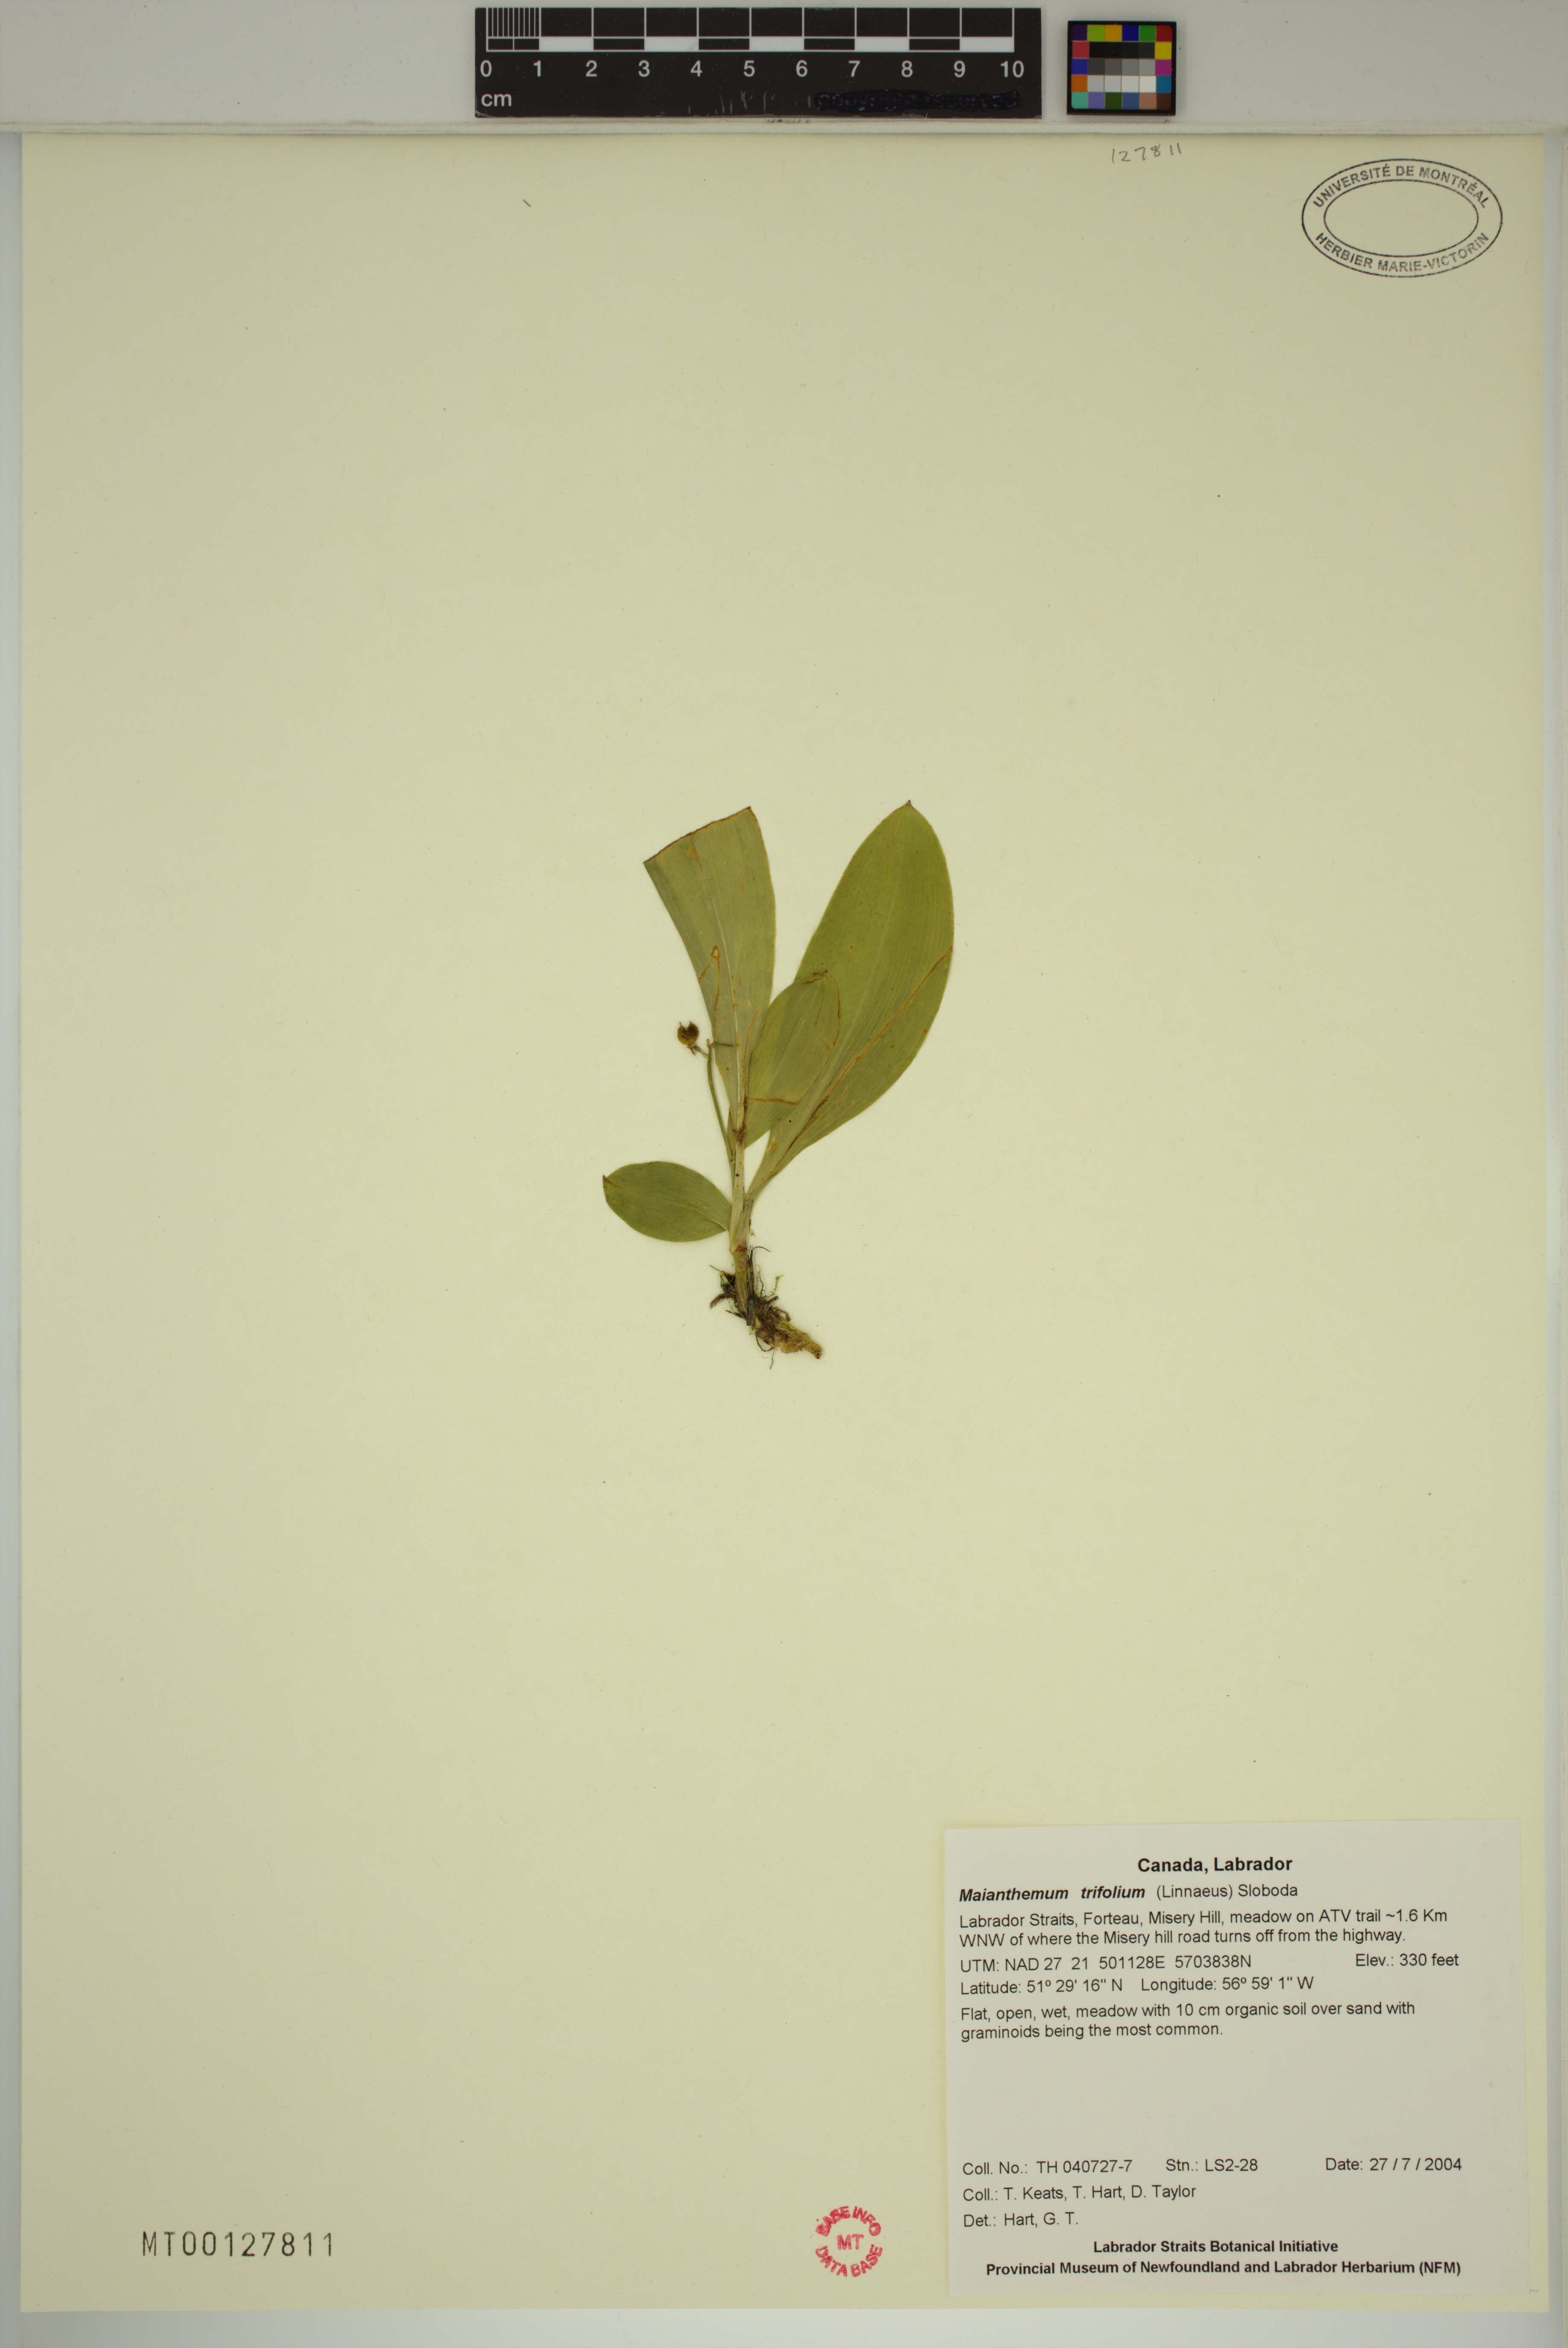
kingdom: Plantae
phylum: Tracheophyta
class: Liliopsida
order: Asparagales
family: Asparagaceae
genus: Maianthemum
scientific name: Maianthemum trifolium
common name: Swamp false solomon's seal
